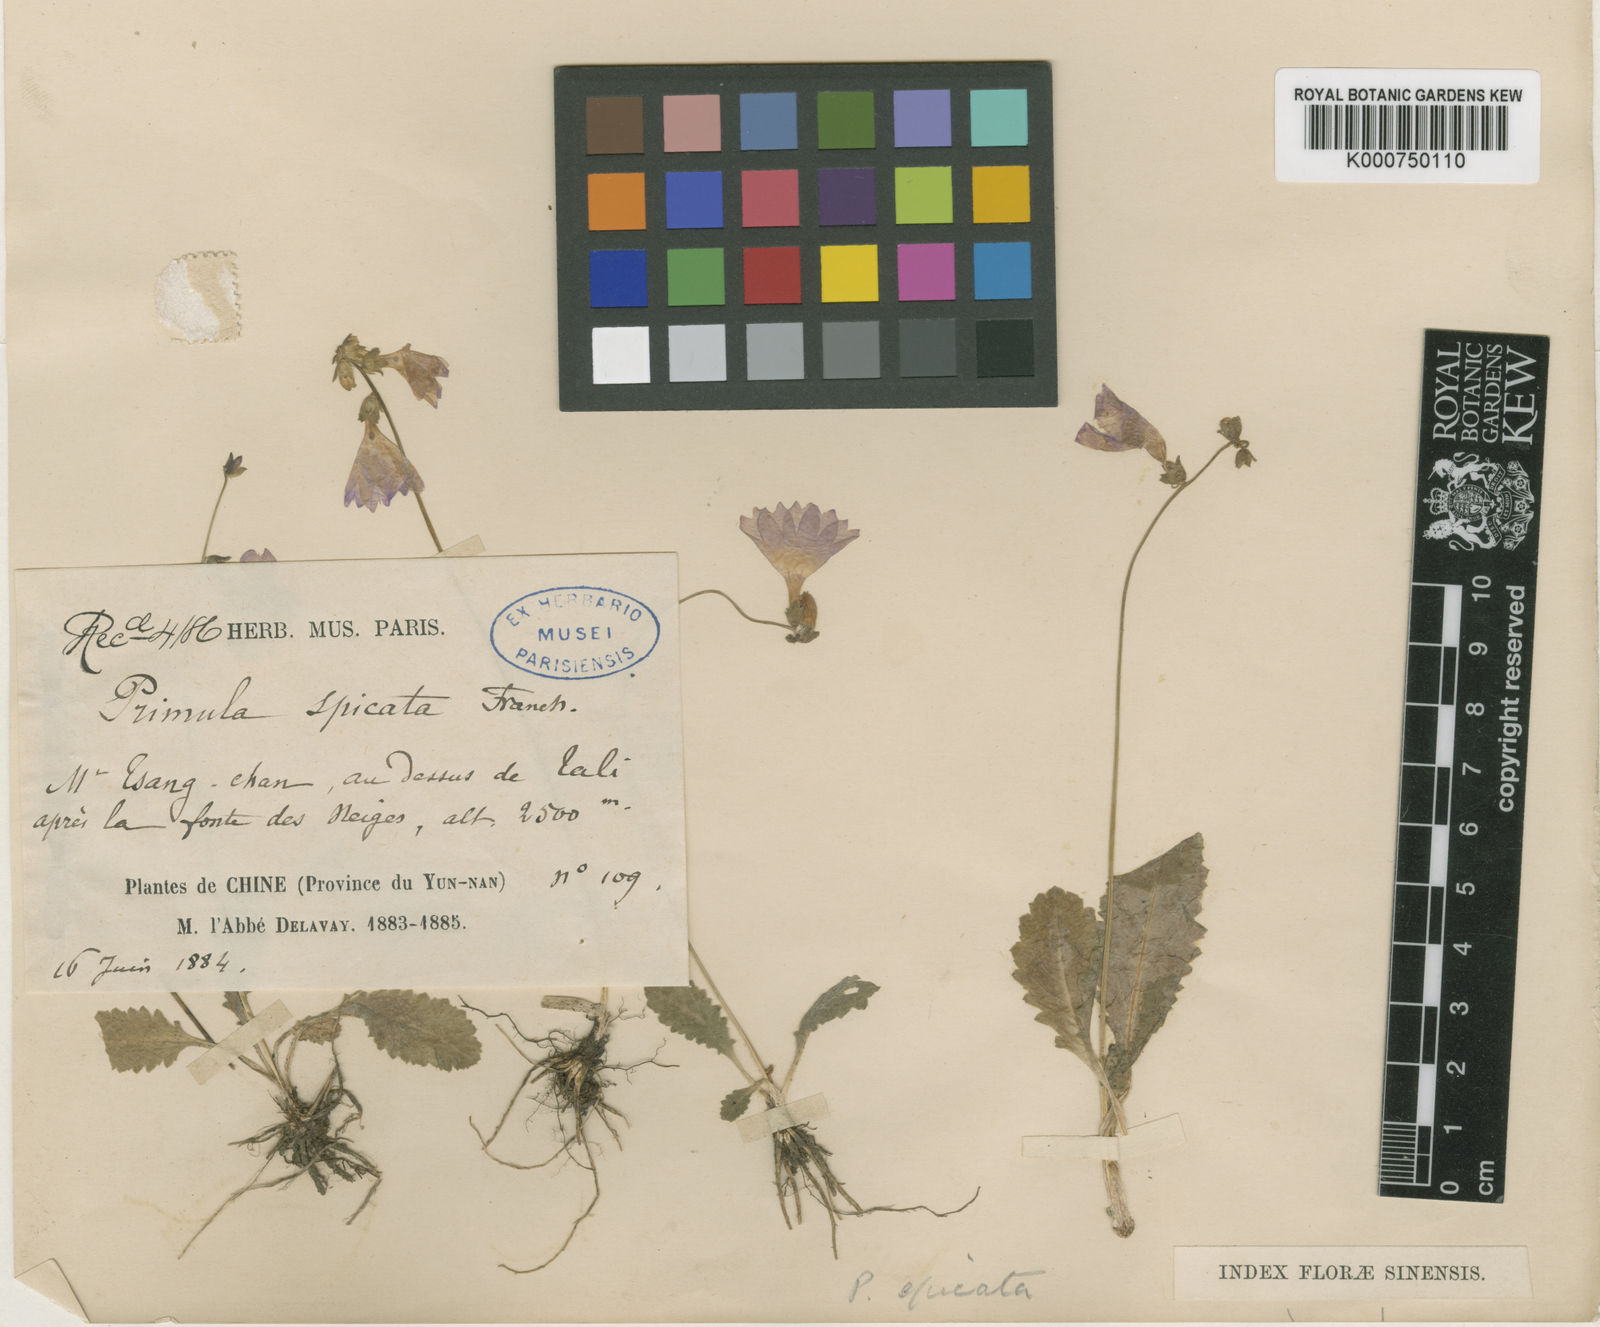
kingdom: Plantae
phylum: Tracheophyta
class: Magnoliopsida
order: Ericales
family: Primulaceae
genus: Primula
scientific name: Primula spicata
